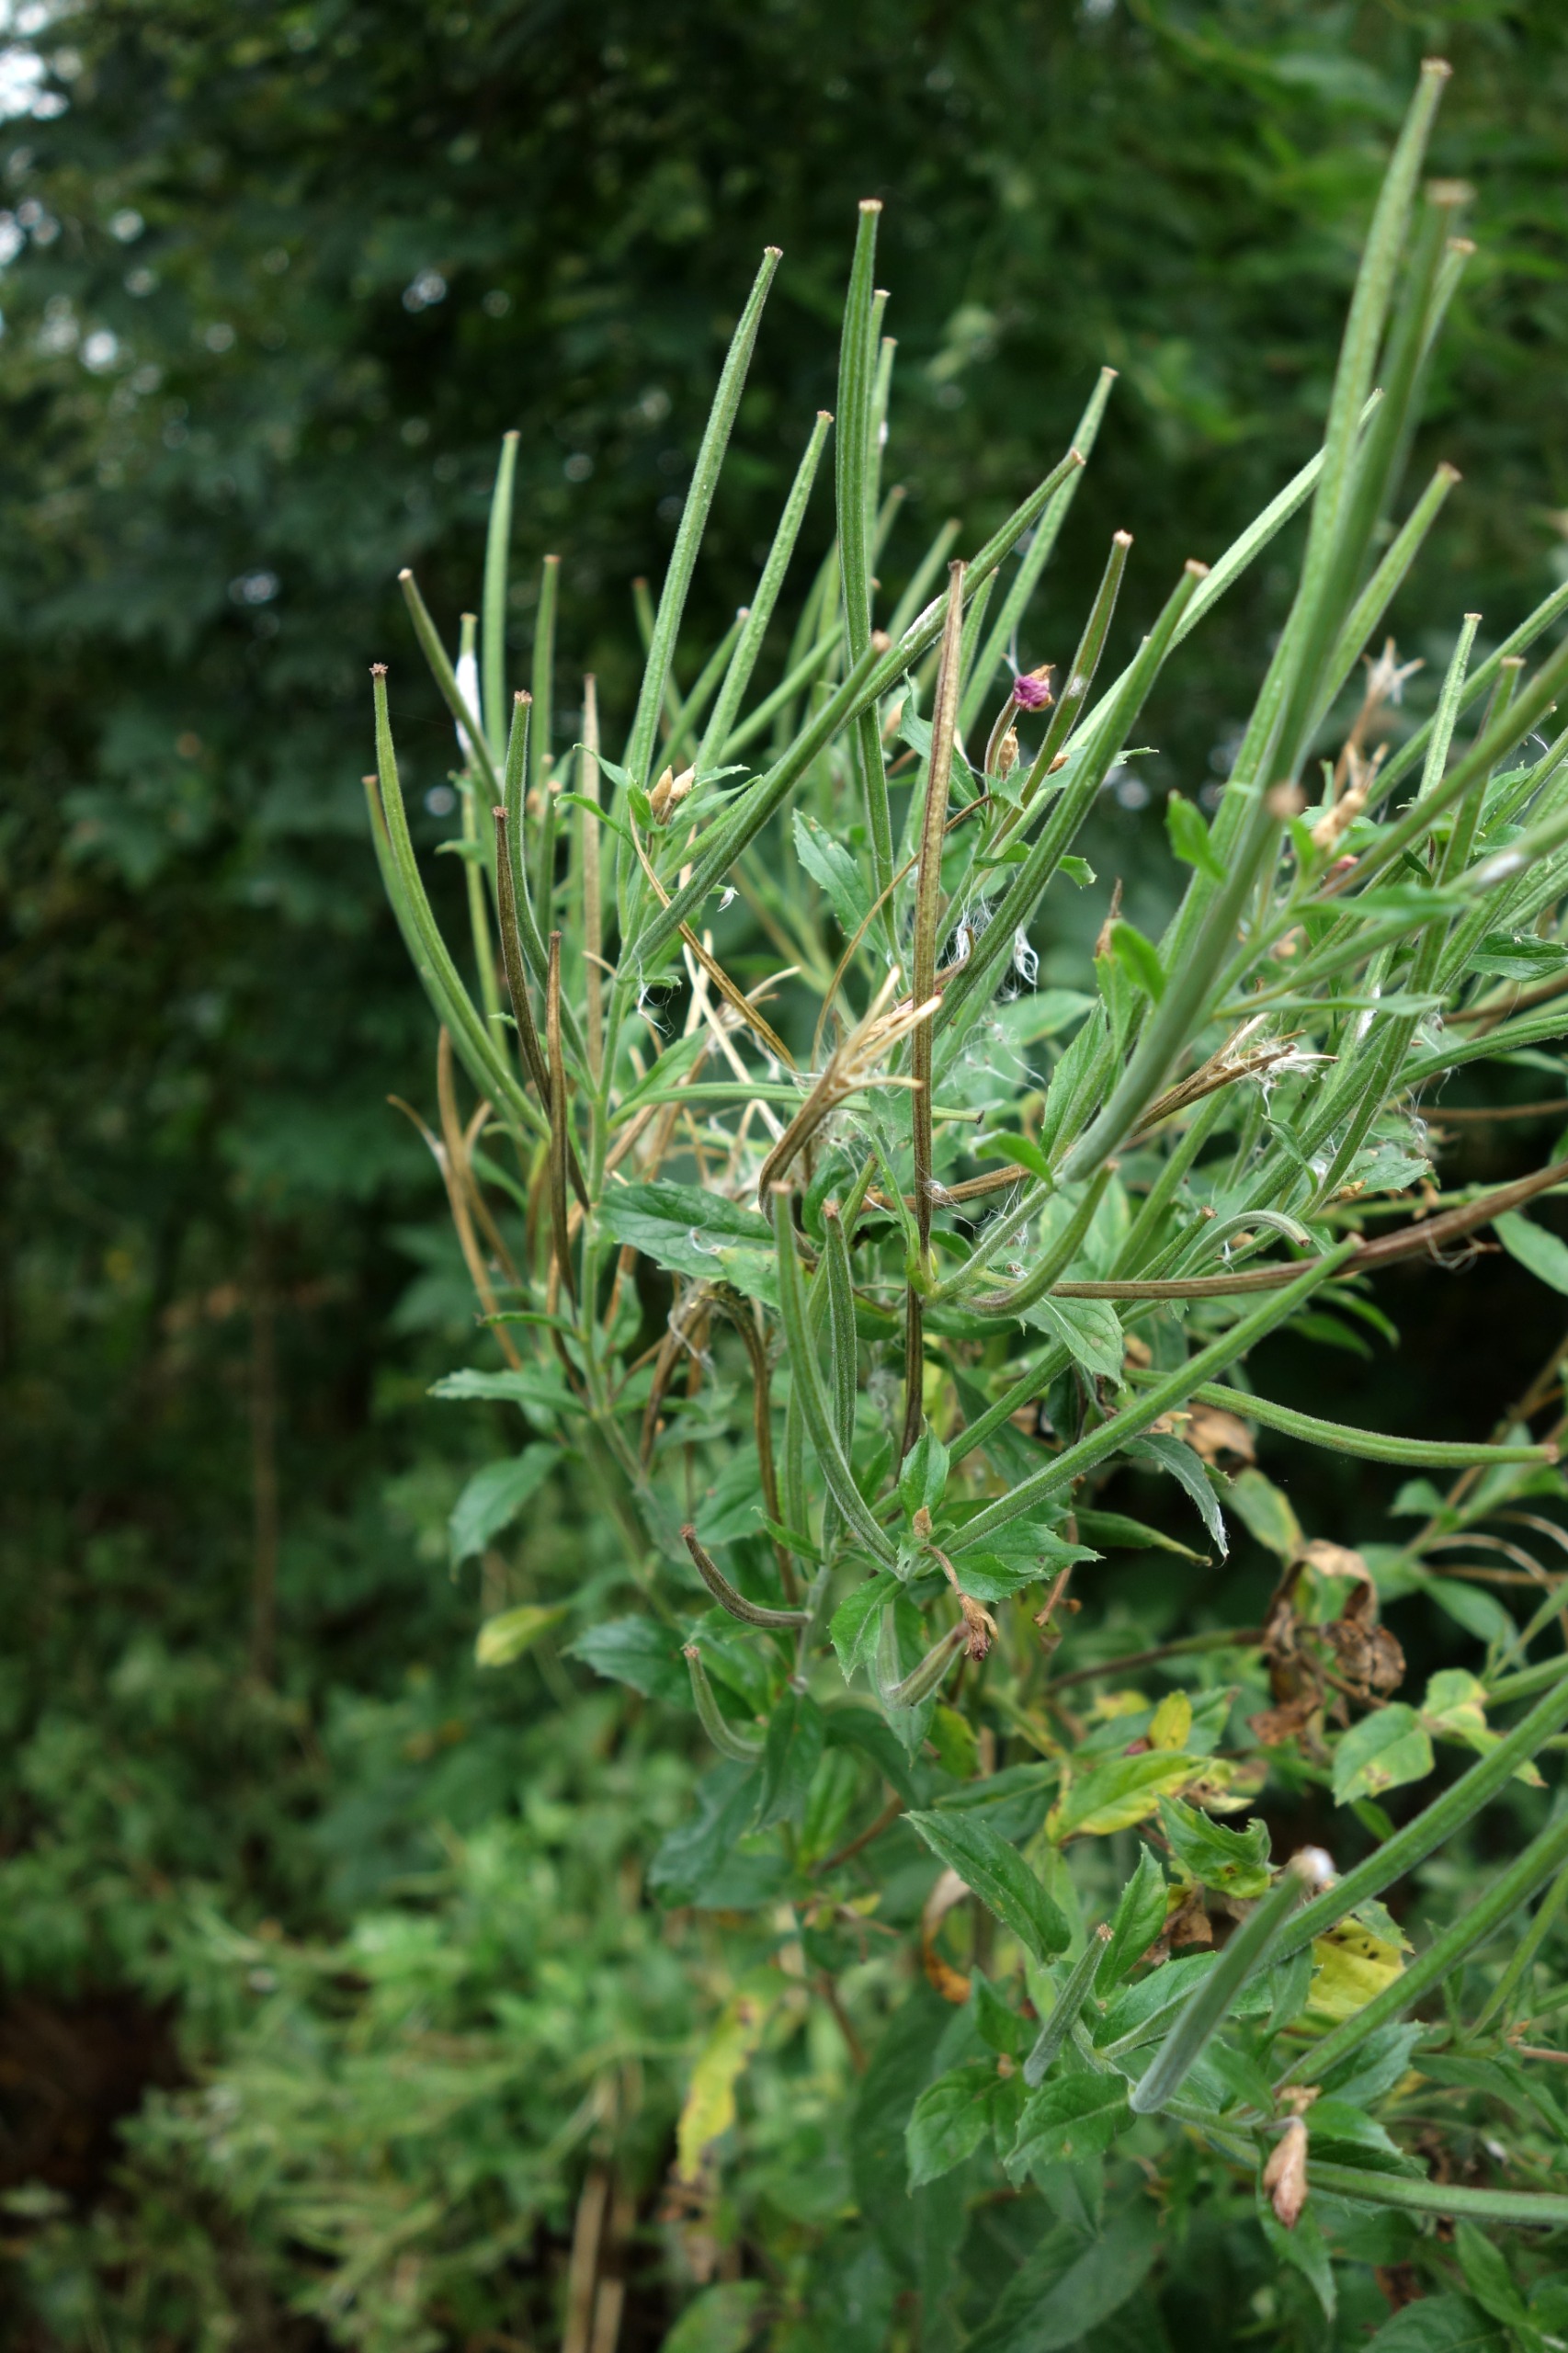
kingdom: Plantae
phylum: Tracheophyta
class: Magnoliopsida
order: Myrtales
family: Onagraceae
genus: Epilobium
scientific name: Epilobium hirsutum
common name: Lådden dueurt
